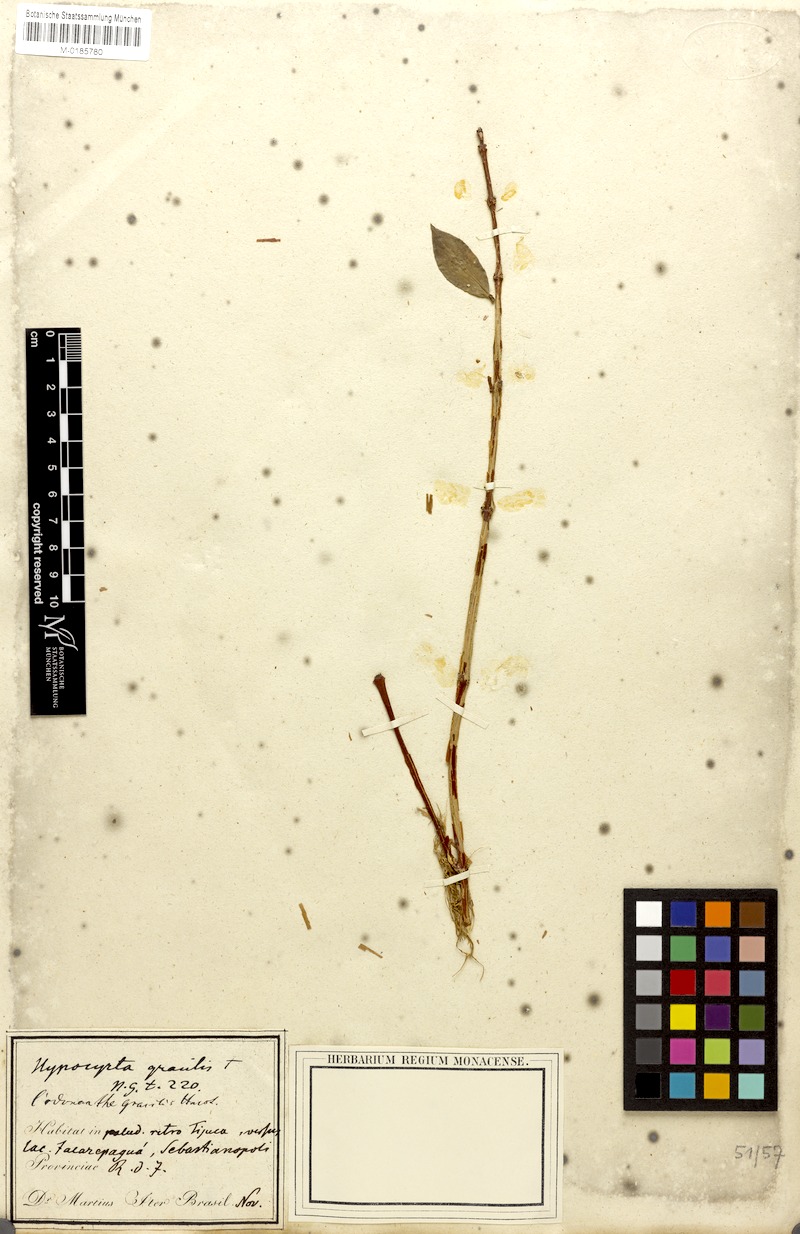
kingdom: Plantae
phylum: Tracheophyta
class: Magnoliopsida
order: Lamiales
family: Gesneriaceae
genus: Codonanthe
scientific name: Codonanthe gracilis
